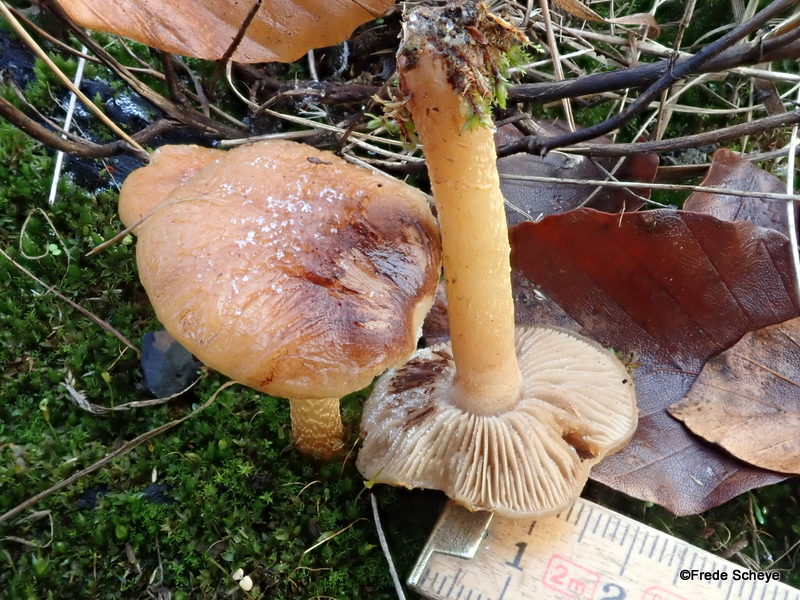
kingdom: Fungi
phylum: Basidiomycota
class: Agaricomycetes
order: Agaricales
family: Strophariaceae
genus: Pholiota
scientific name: Pholiota carbonaria
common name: kul-skælhat
